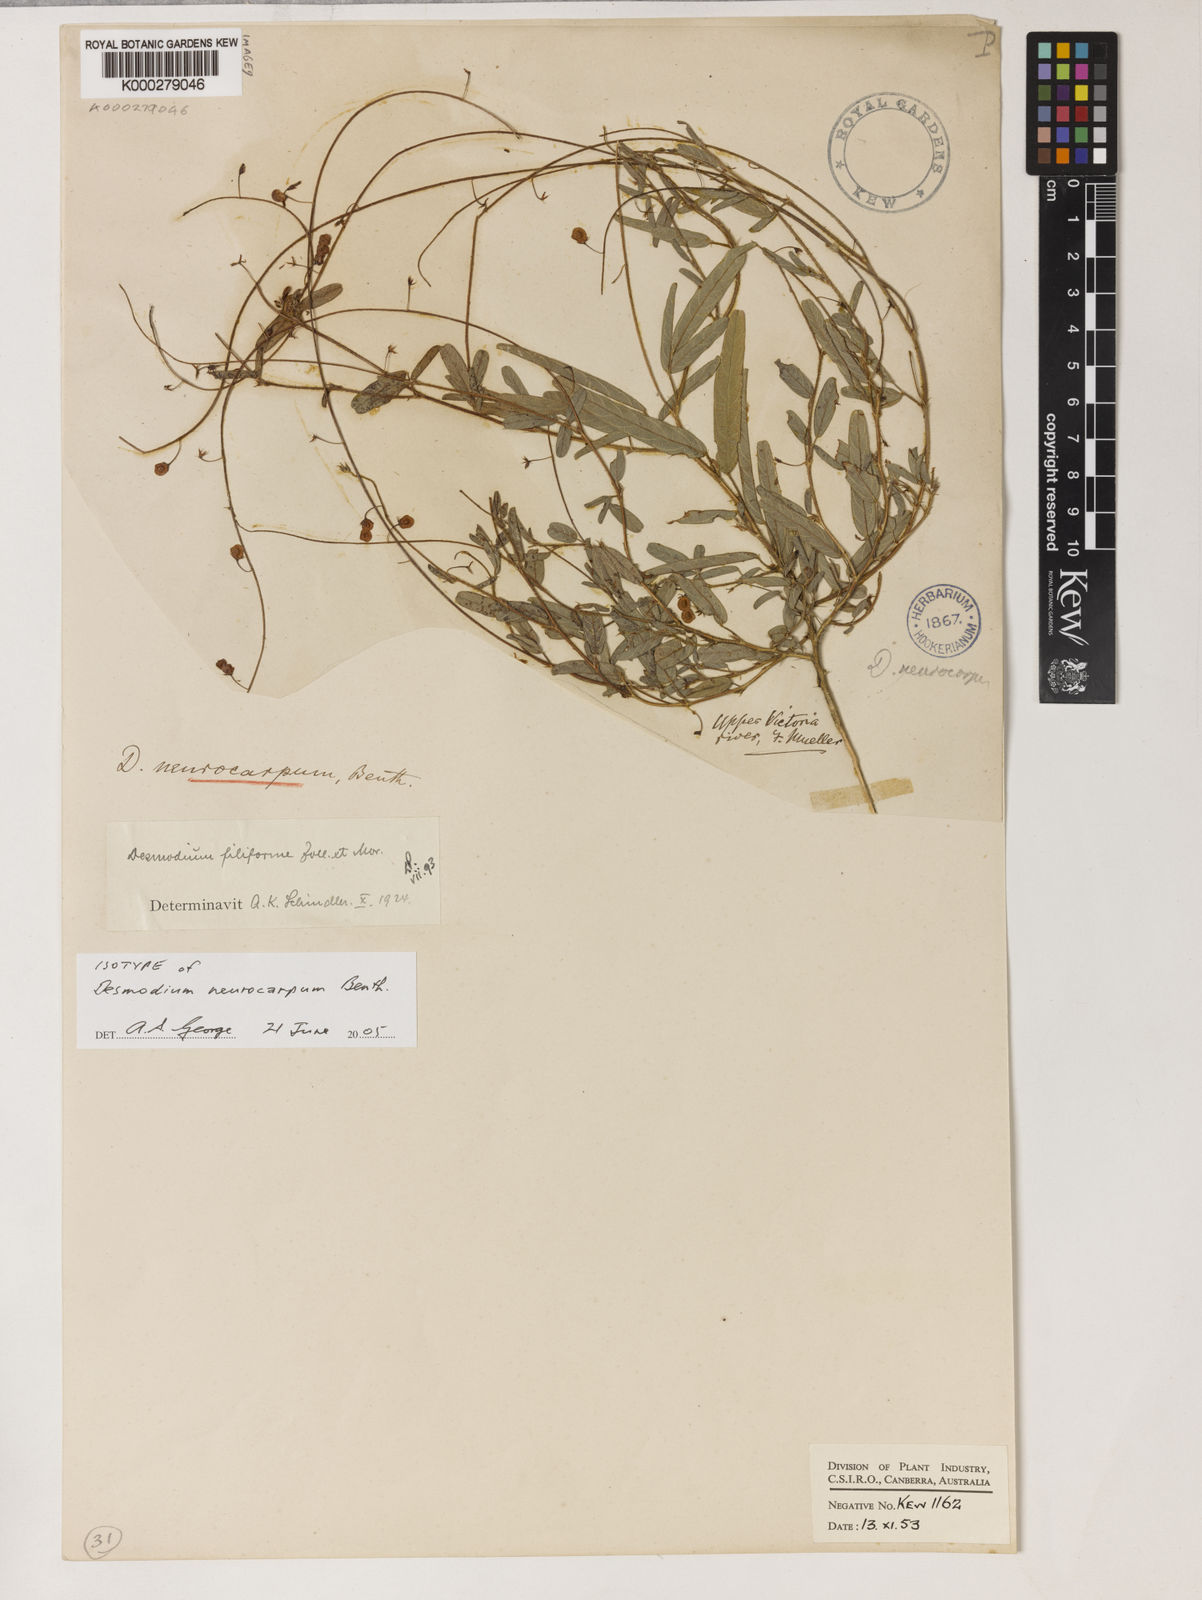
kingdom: Plantae
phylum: Tracheophyta
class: Magnoliopsida
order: Fabales
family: Fabaceae
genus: Grona
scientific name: Grona filiformis
